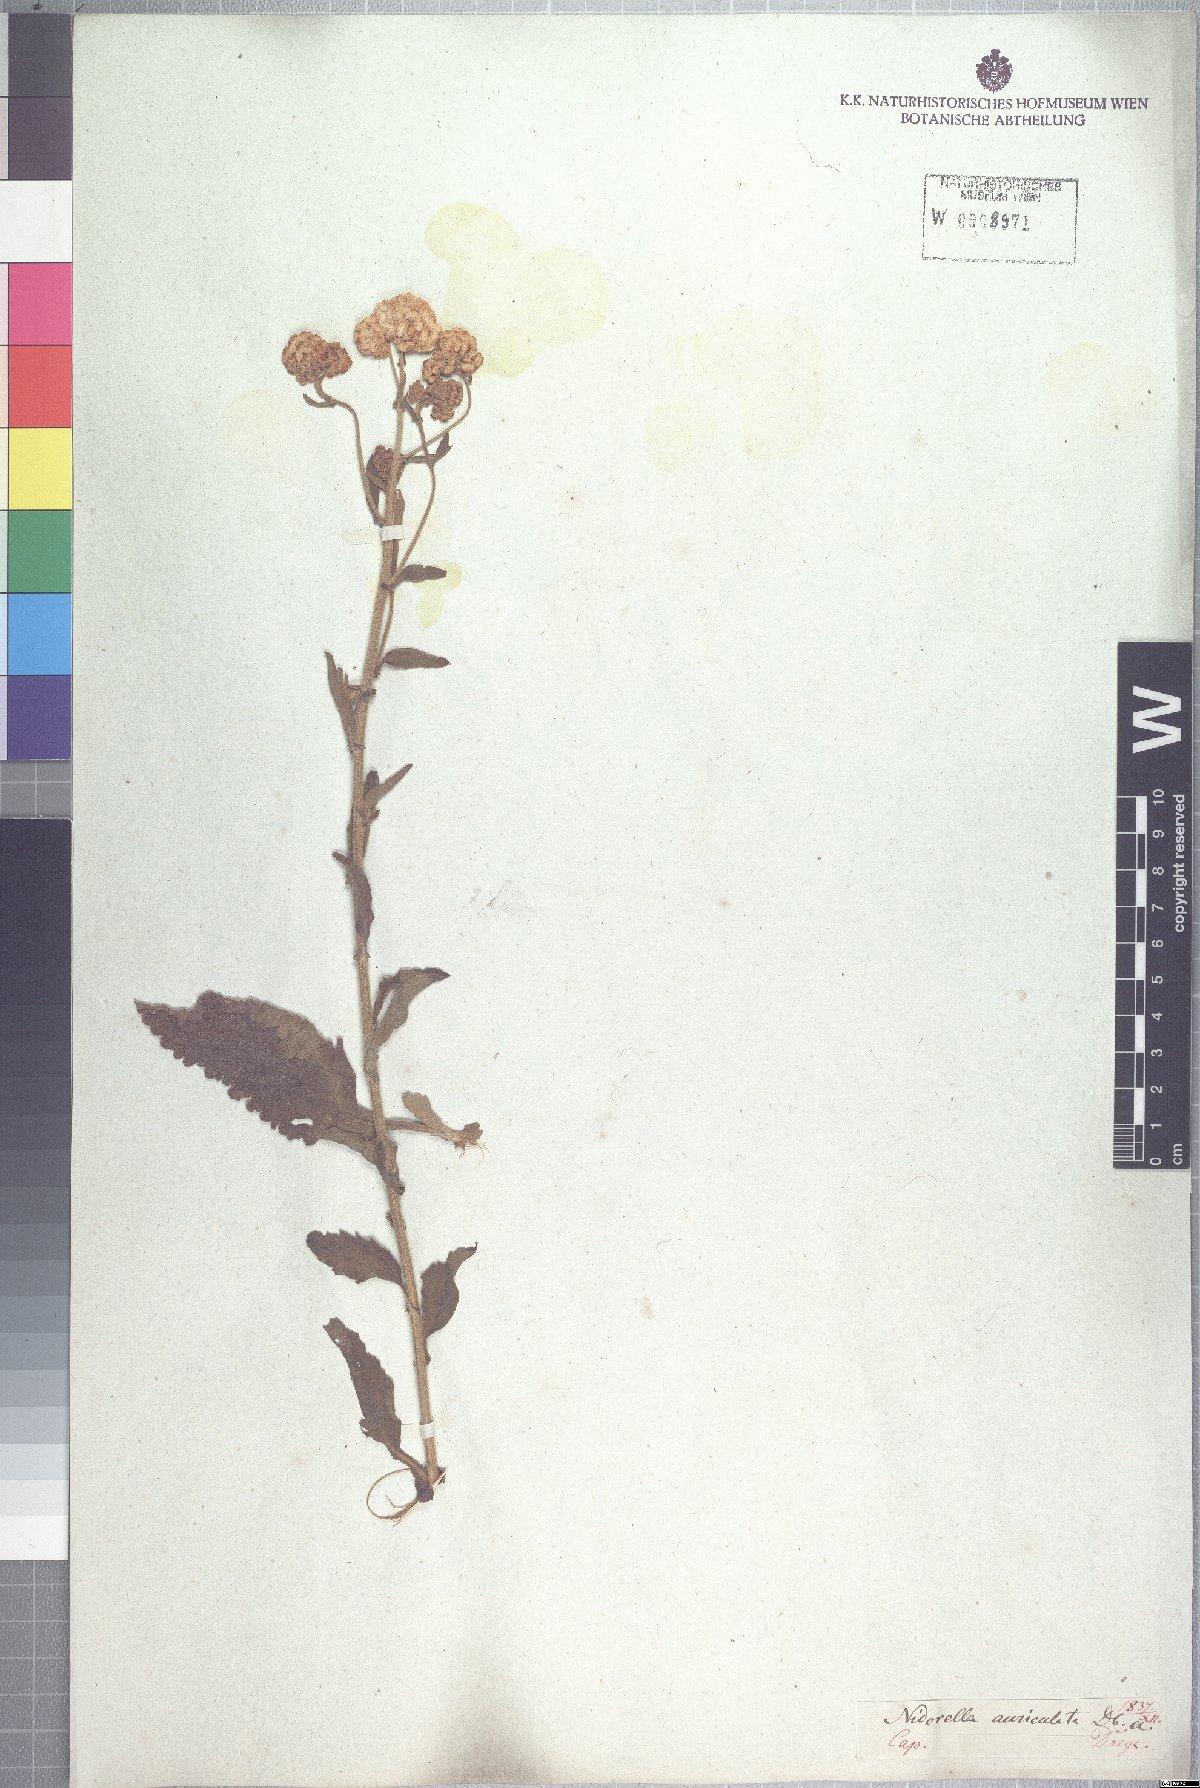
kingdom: Plantae
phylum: Tracheophyta
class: Magnoliopsida
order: Asterales
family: Asteraceae
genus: Nidorella
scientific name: Nidorella auriculata
